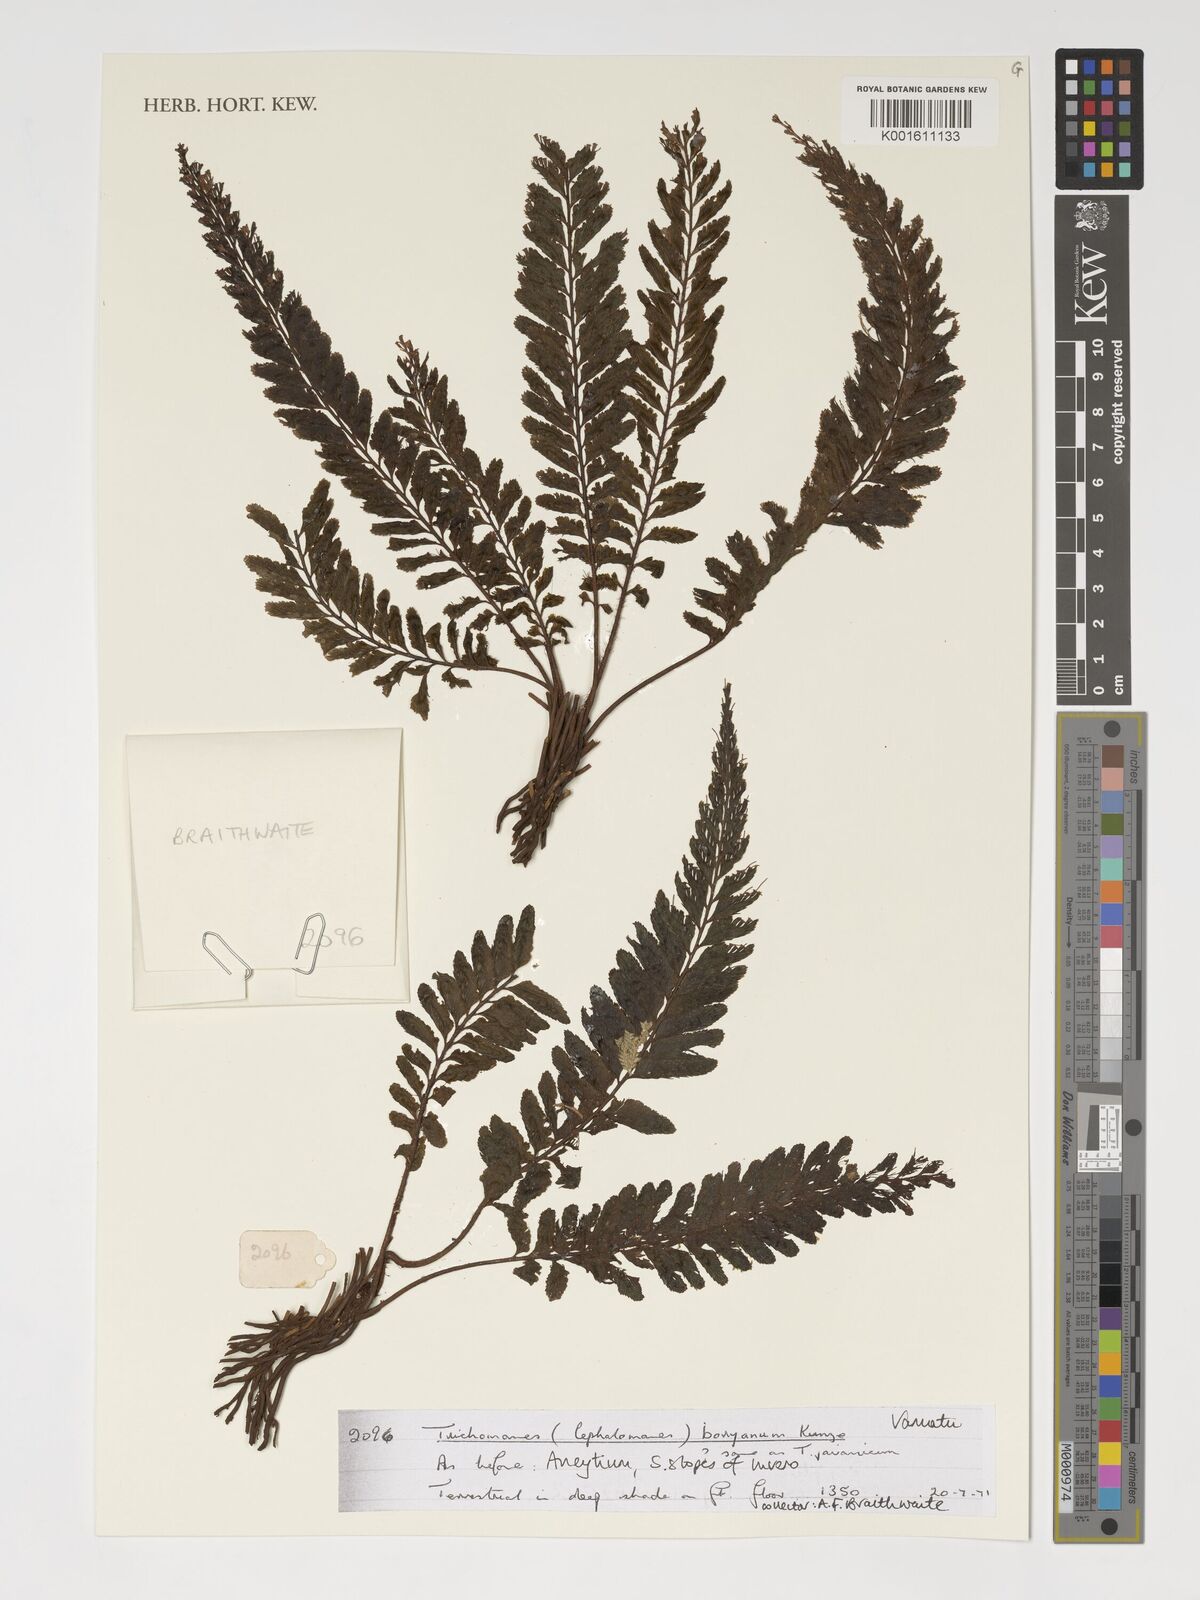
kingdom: Plantae
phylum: Tracheophyta
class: Polypodiopsida
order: Hymenophyllales
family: Hymenophyllaceae
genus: Cephalomanes
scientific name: Cephalomanes boryanum
